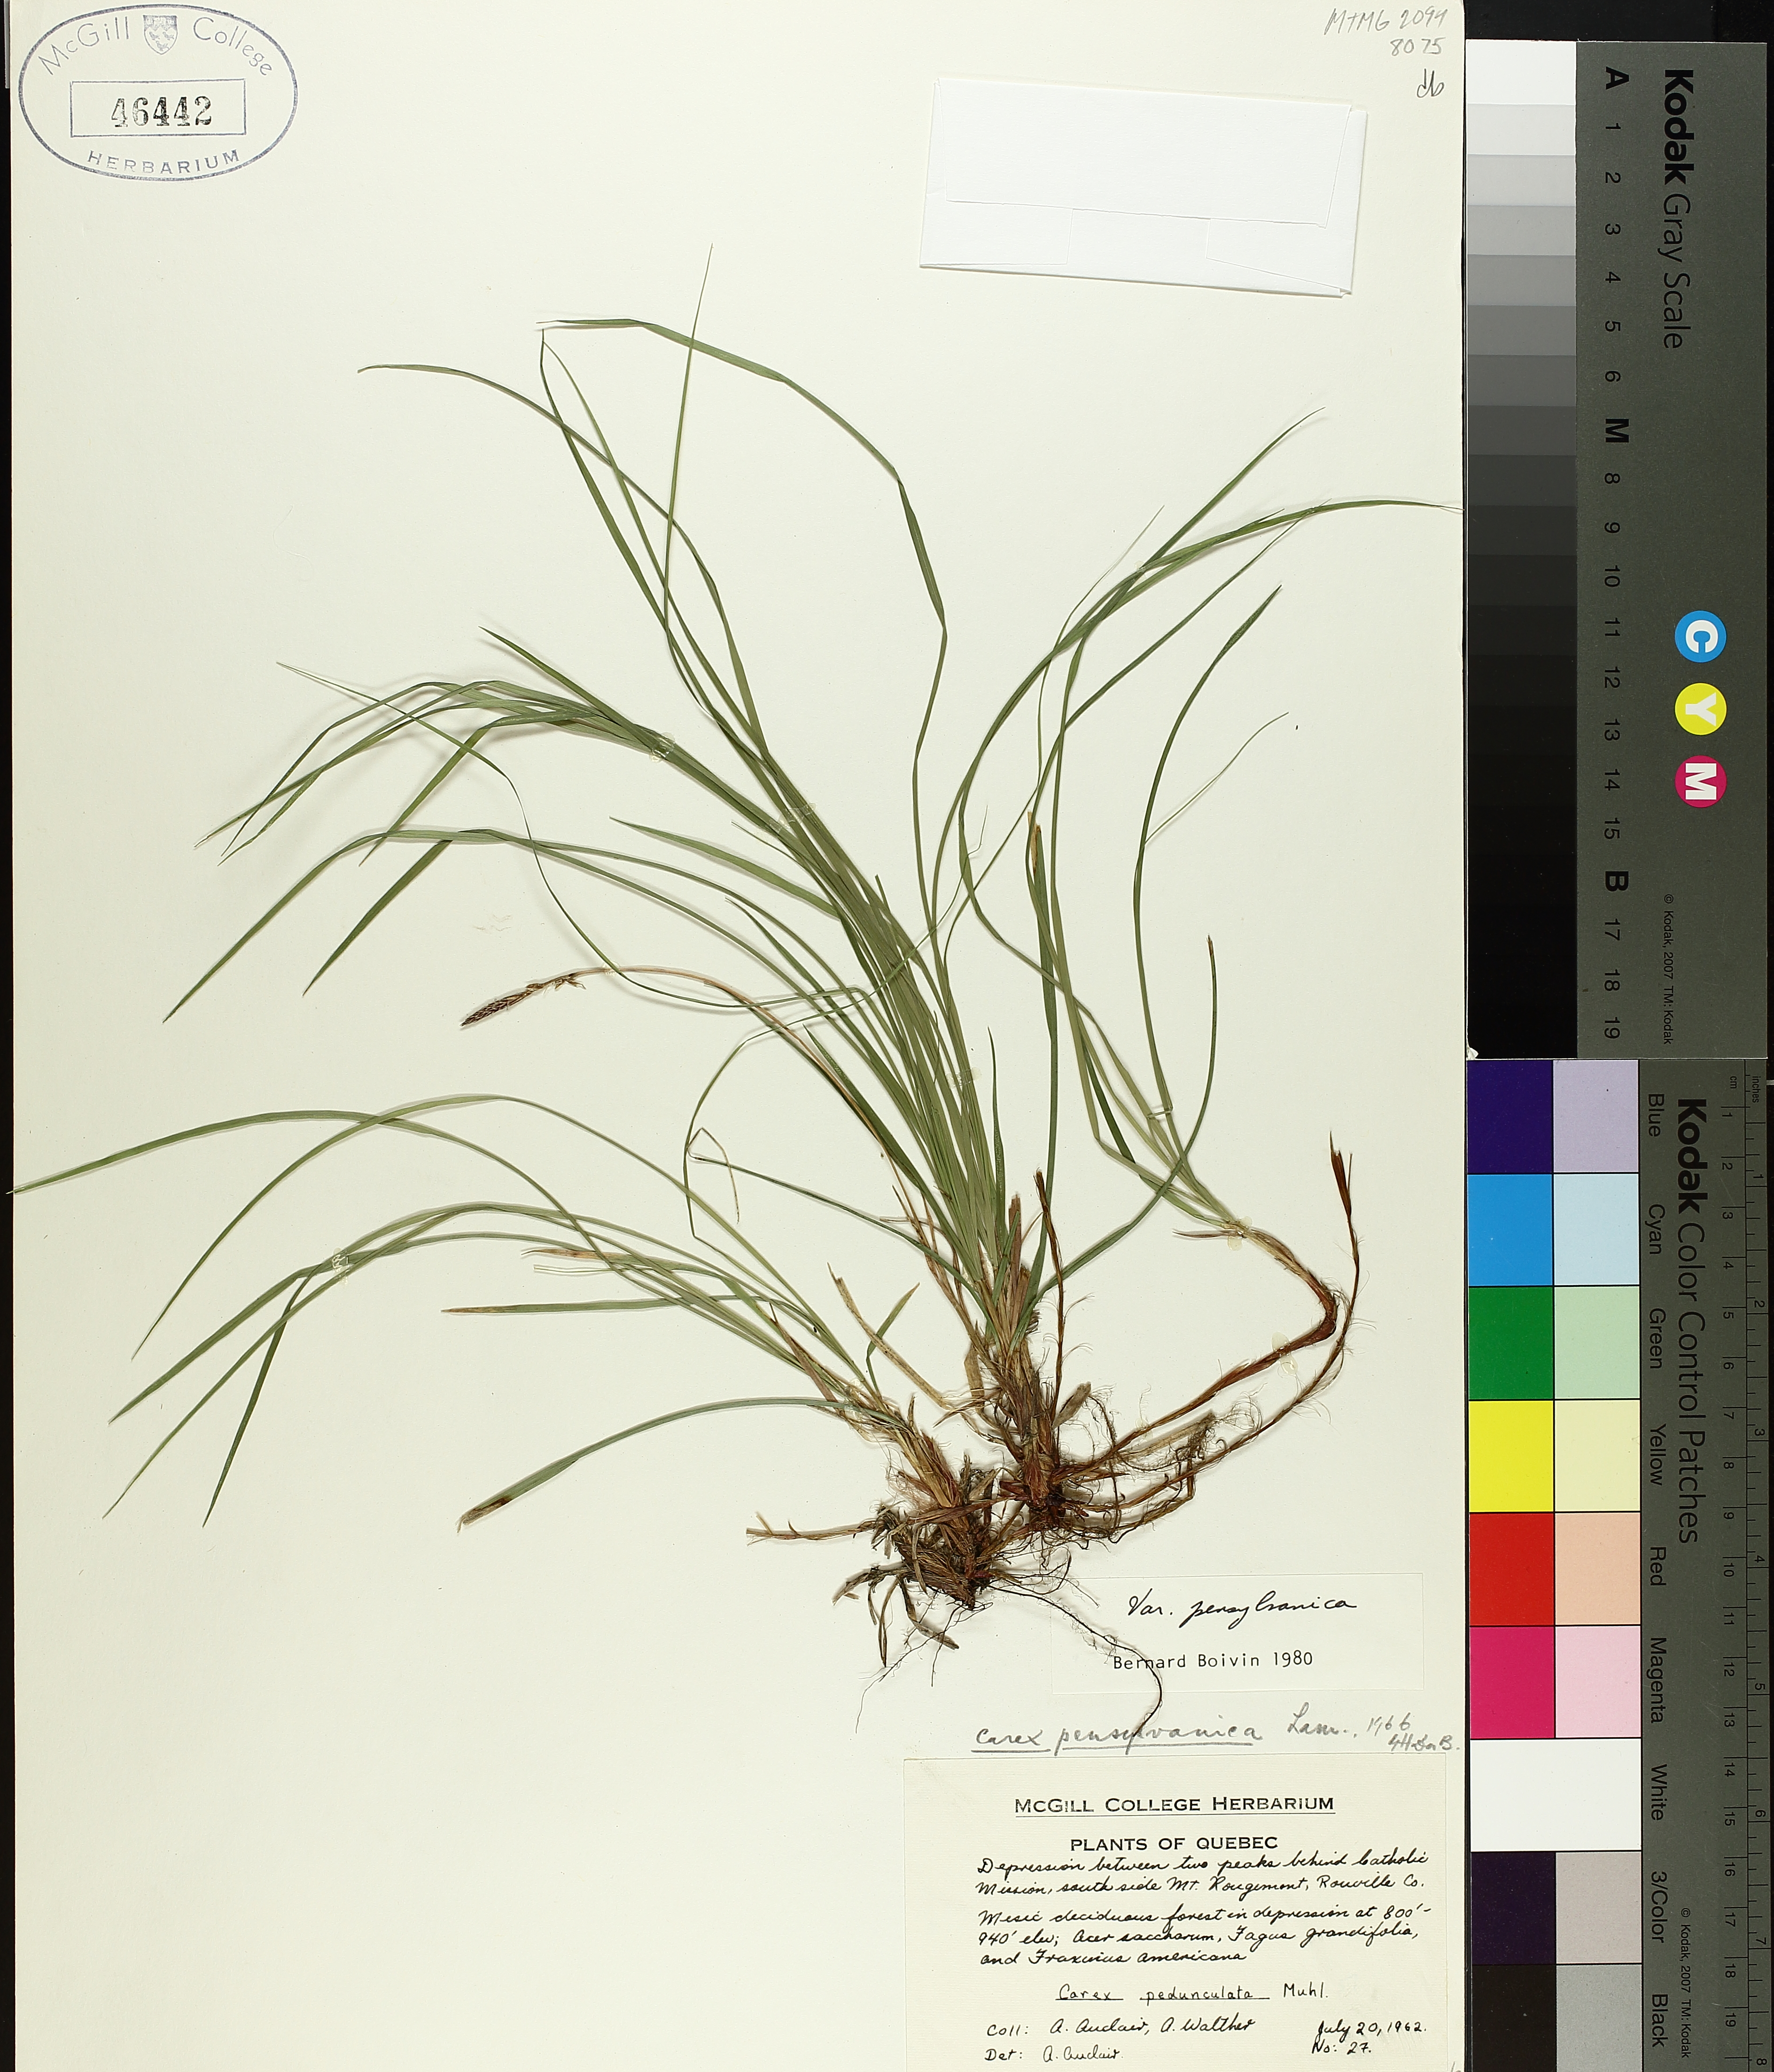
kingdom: Plantae
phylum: Tracheophyta
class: Liliopsida
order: Poales
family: Cyperaceae
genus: Carex
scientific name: Carex pensylvanica
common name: Common oak sedge
